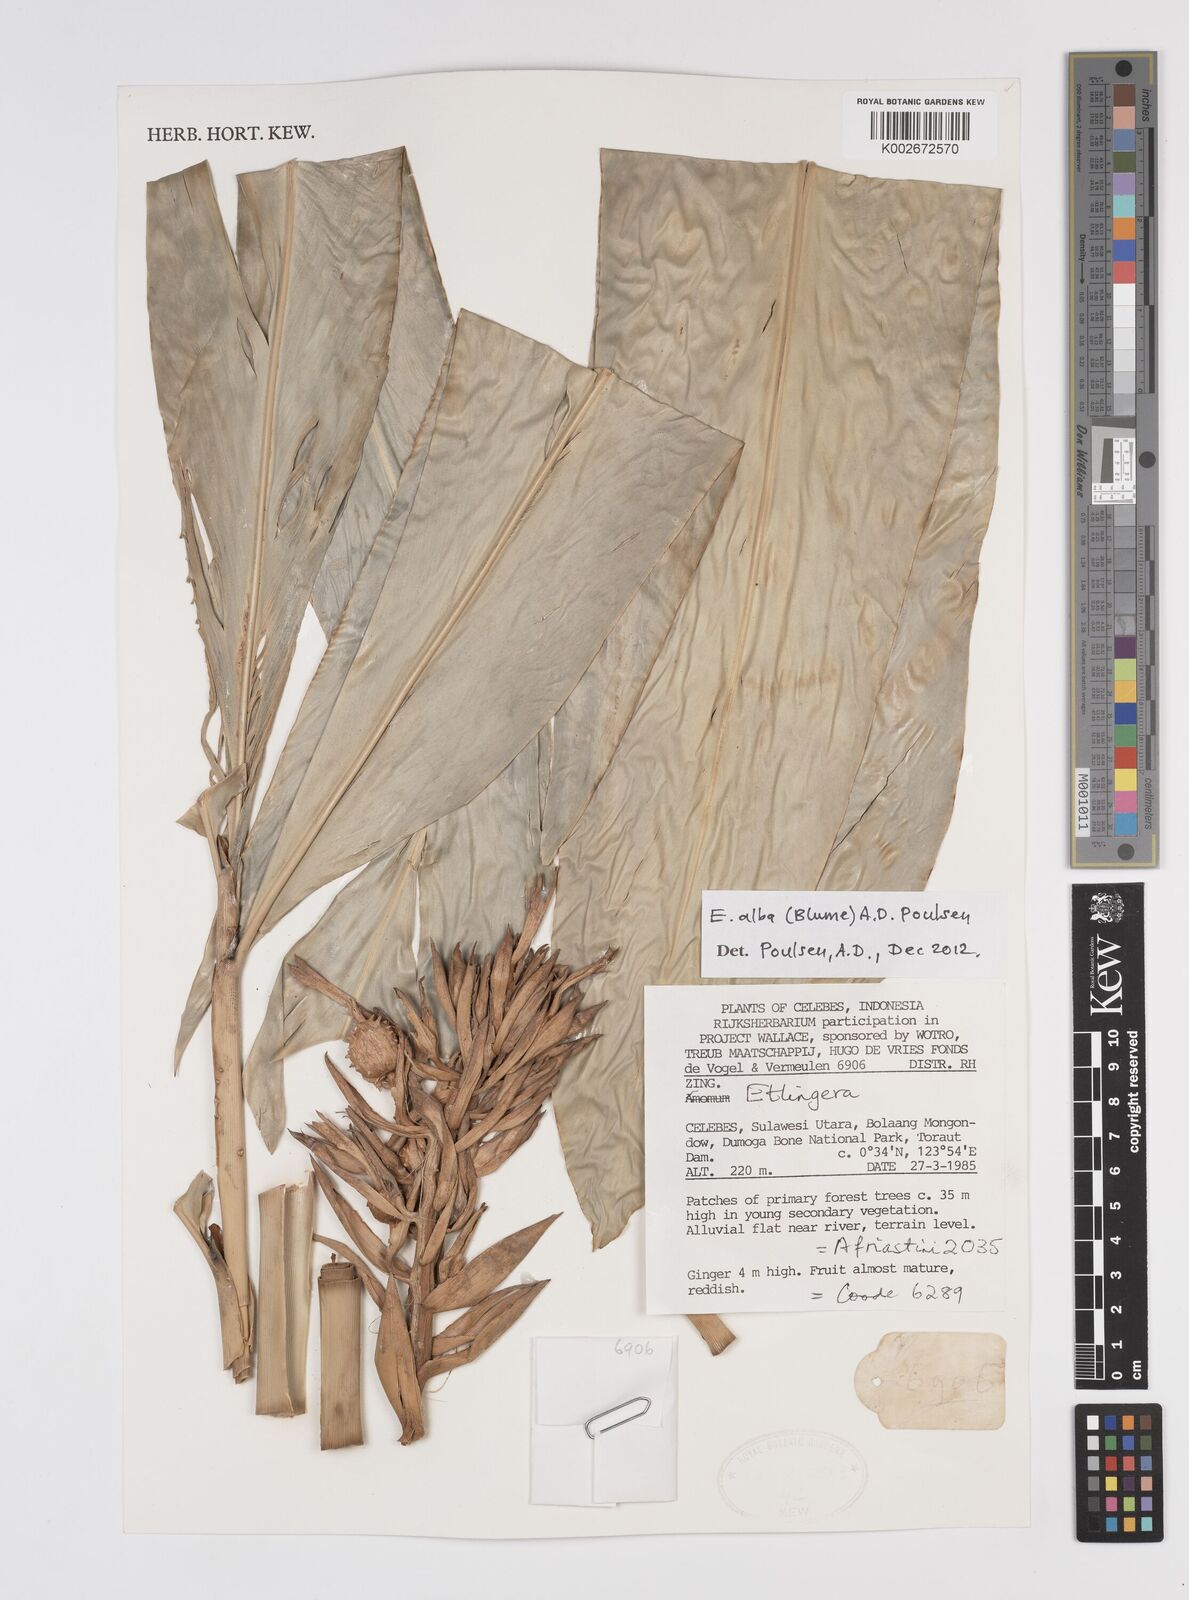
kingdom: Plantae
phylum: Tracheophyta
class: Liliopsida
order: Zingiberales
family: Zingiberaceae
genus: Etlingera
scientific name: Etlingera alba
